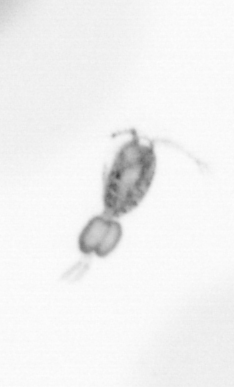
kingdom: Animalia
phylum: Arthropoda
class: Copepoda
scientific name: Copepoda
